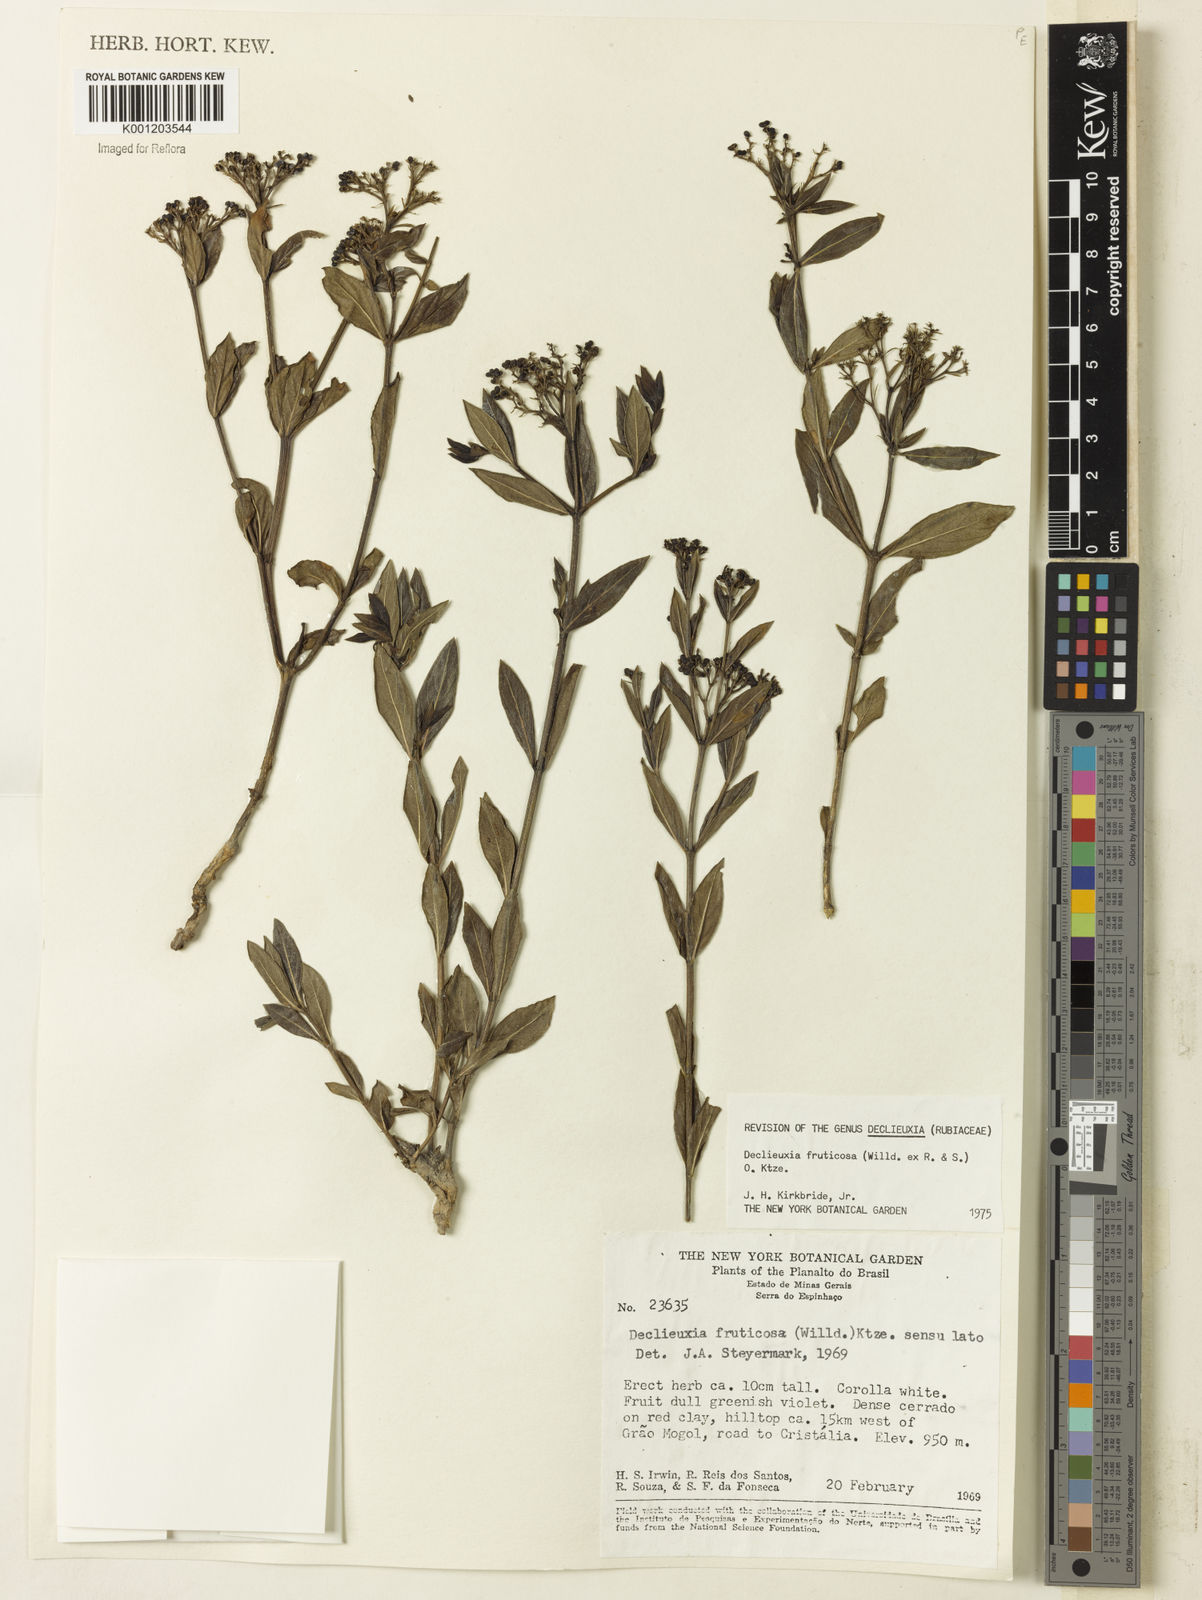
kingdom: Plantae
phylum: Tracheophyta
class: Magnoliopsida
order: Gentianales
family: Rubiaceae
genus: Declieuxia
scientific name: Declieuxia fruticosa
